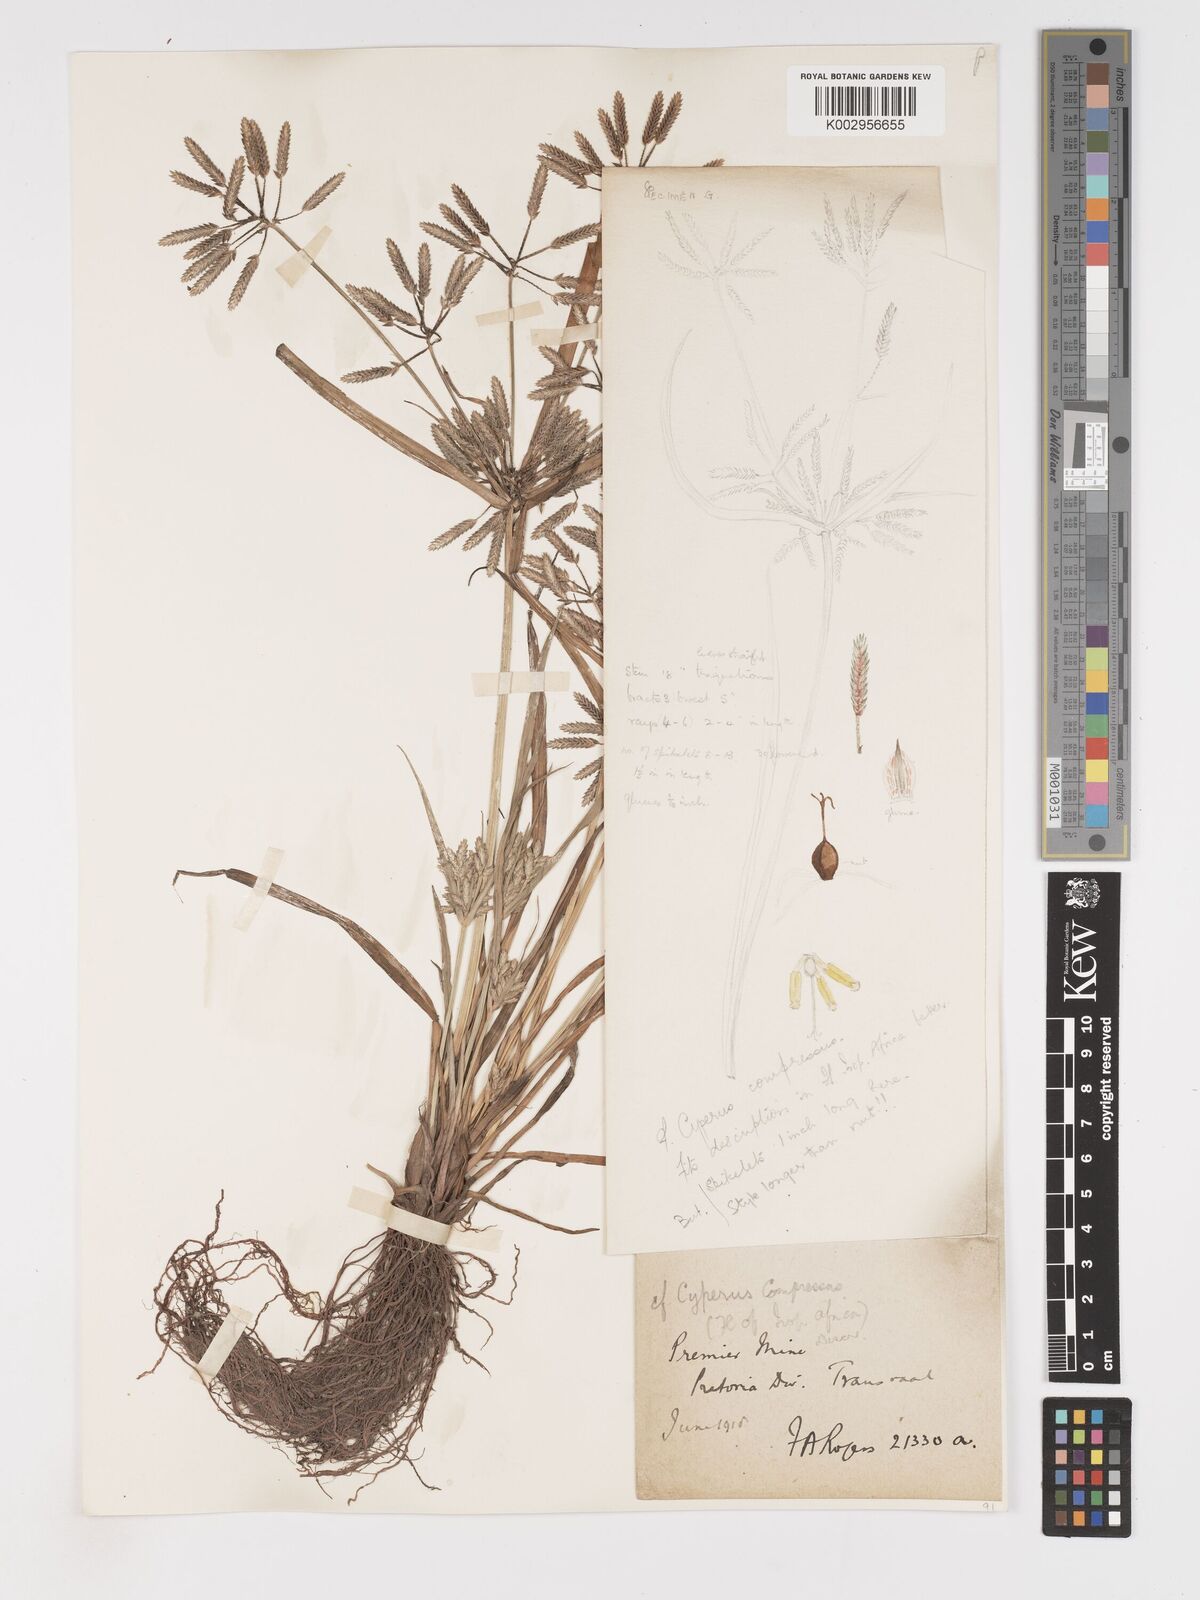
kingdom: Plantae
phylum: Tracheophyta
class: Liliopsida
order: Poales
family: Cyperaceae
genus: Cyperus
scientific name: Cyperus compressus
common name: Poorland flatsedge
